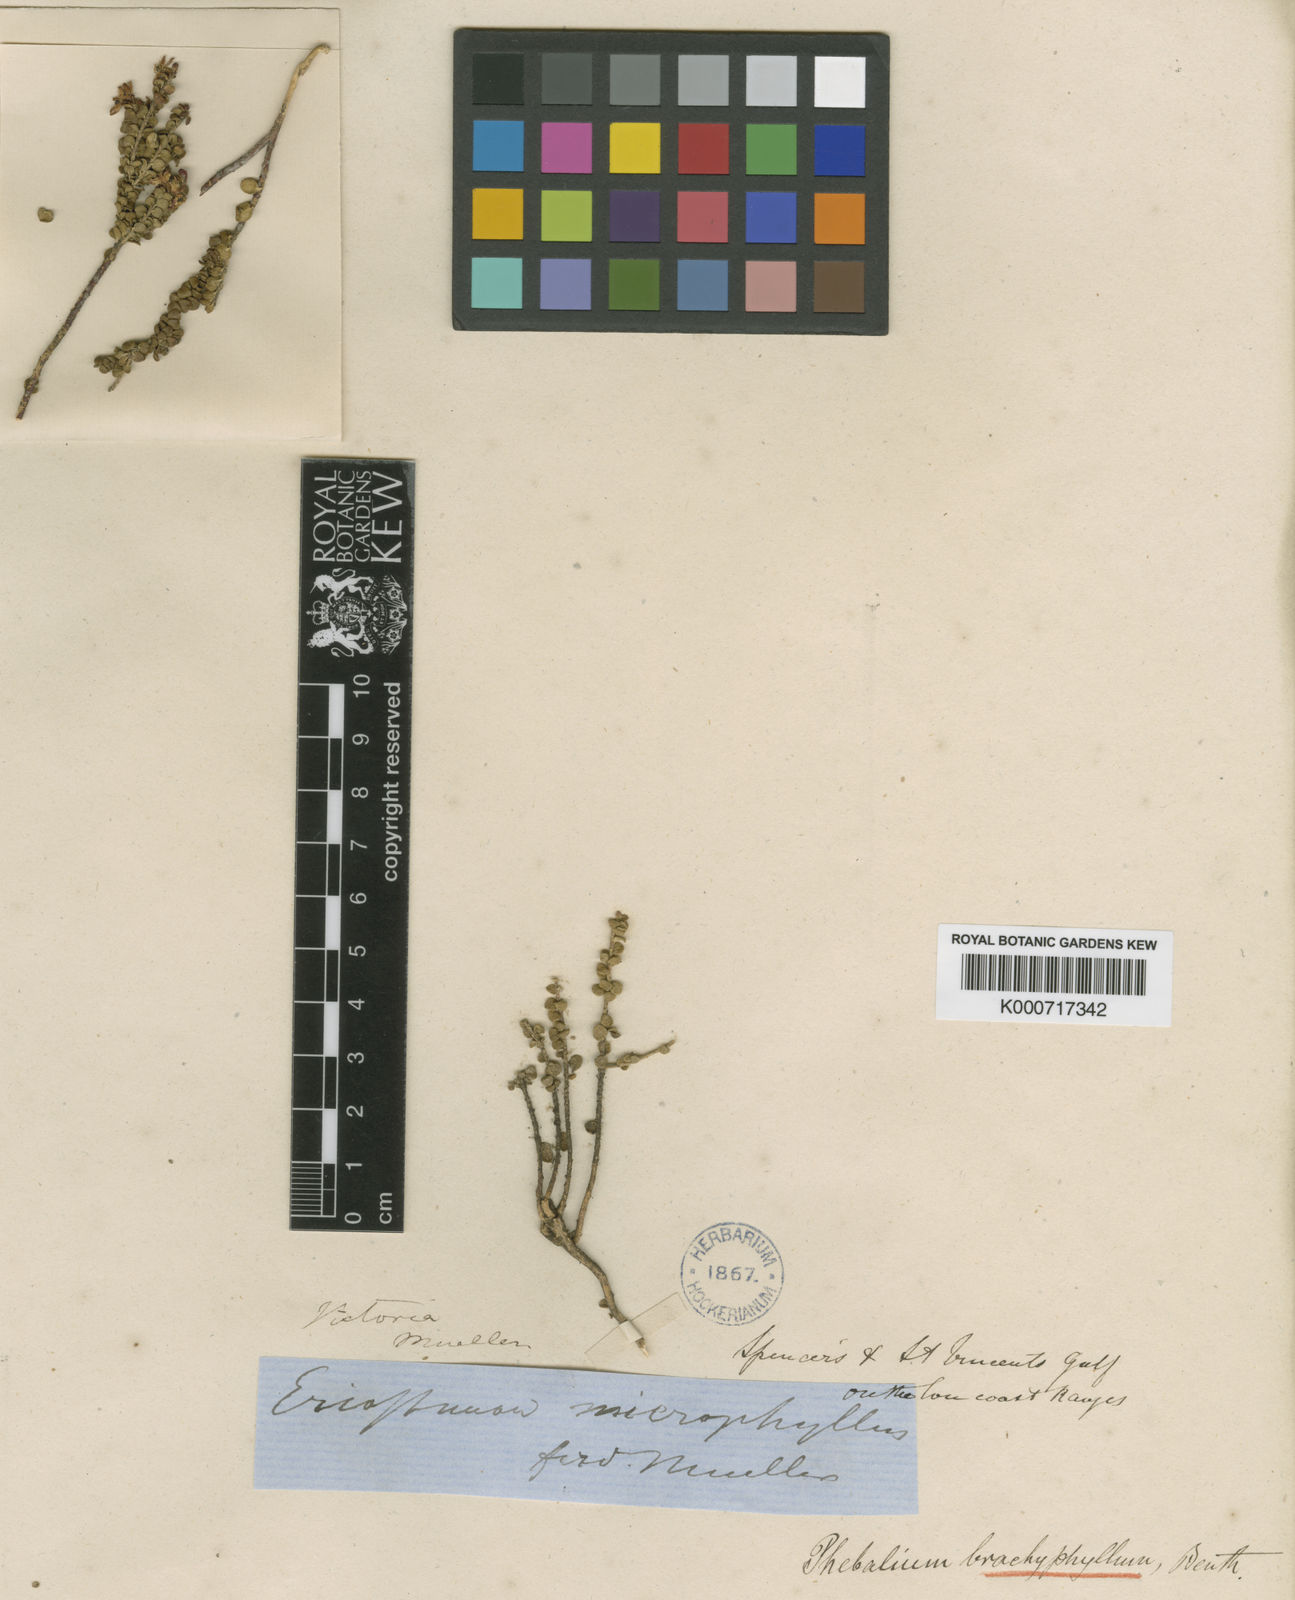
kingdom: Plantae
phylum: Tracheophyta
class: Magnoliopsida
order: Sapindales
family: Rutaceae
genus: Leionema
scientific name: Leionema microphyllum
